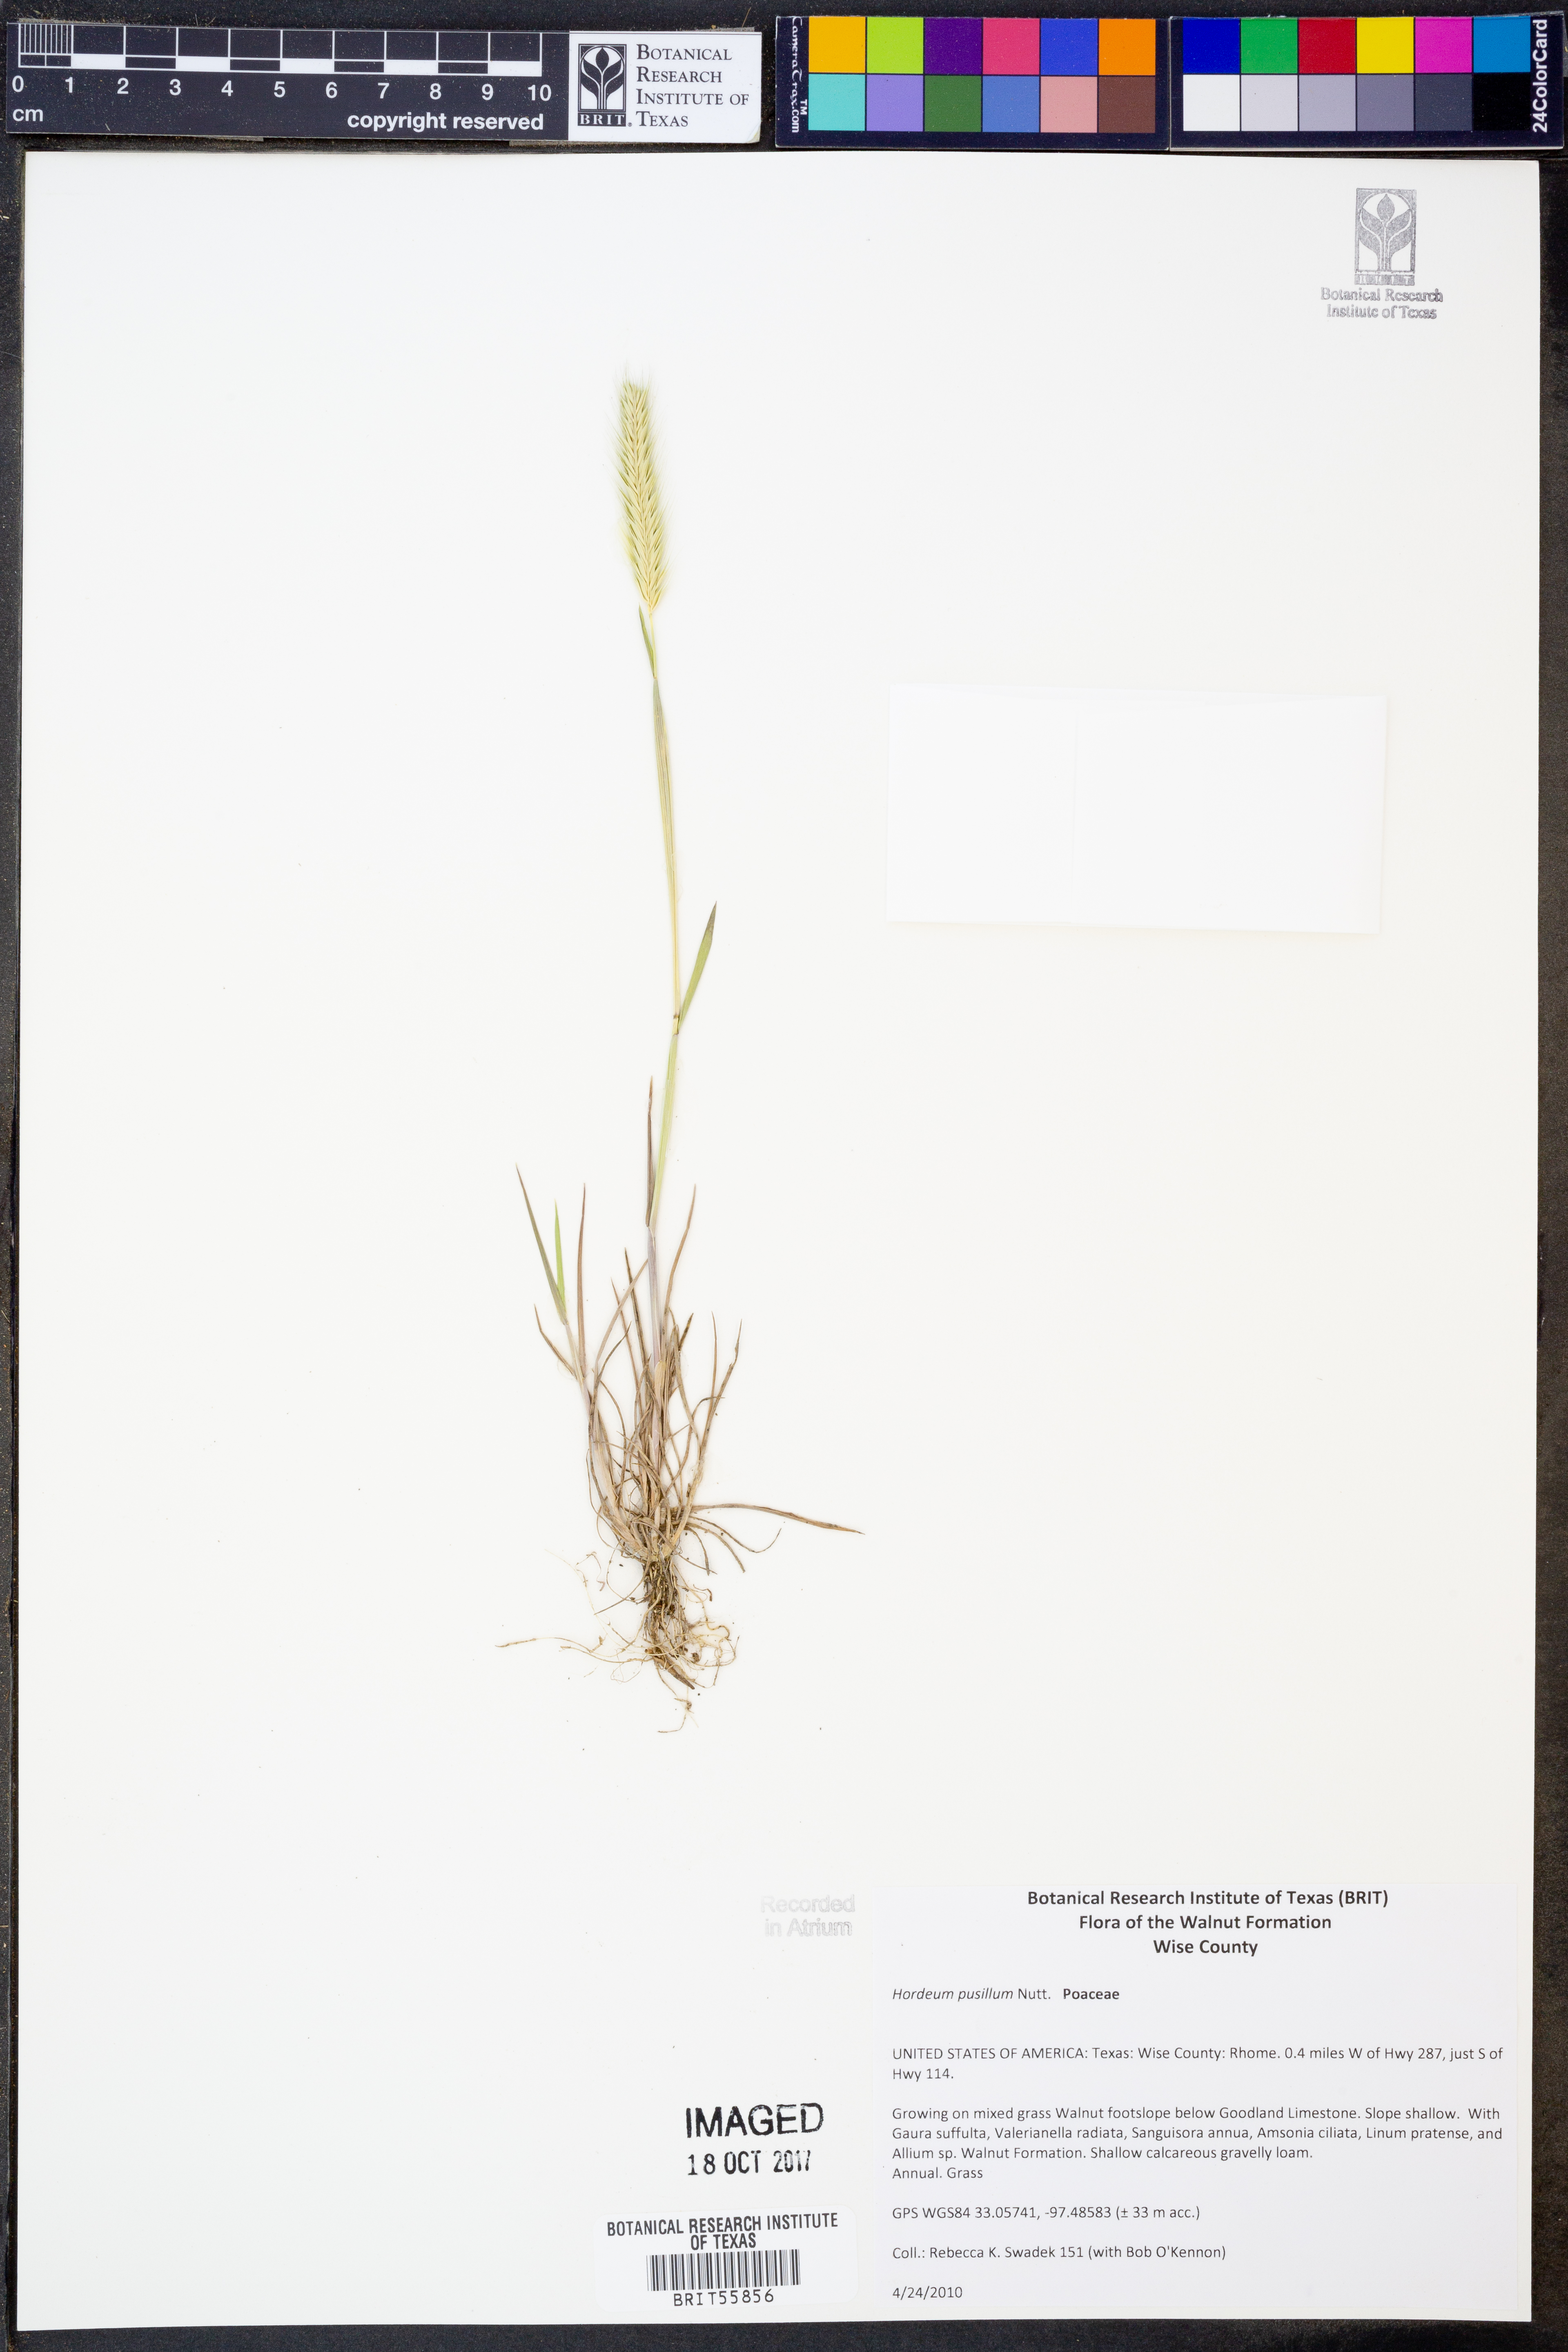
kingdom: Plantae
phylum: Tracheophyta
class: Liliopsida
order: Poales
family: Poaceae
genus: Hordeum
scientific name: Hordeum pusillum
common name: Little barley
